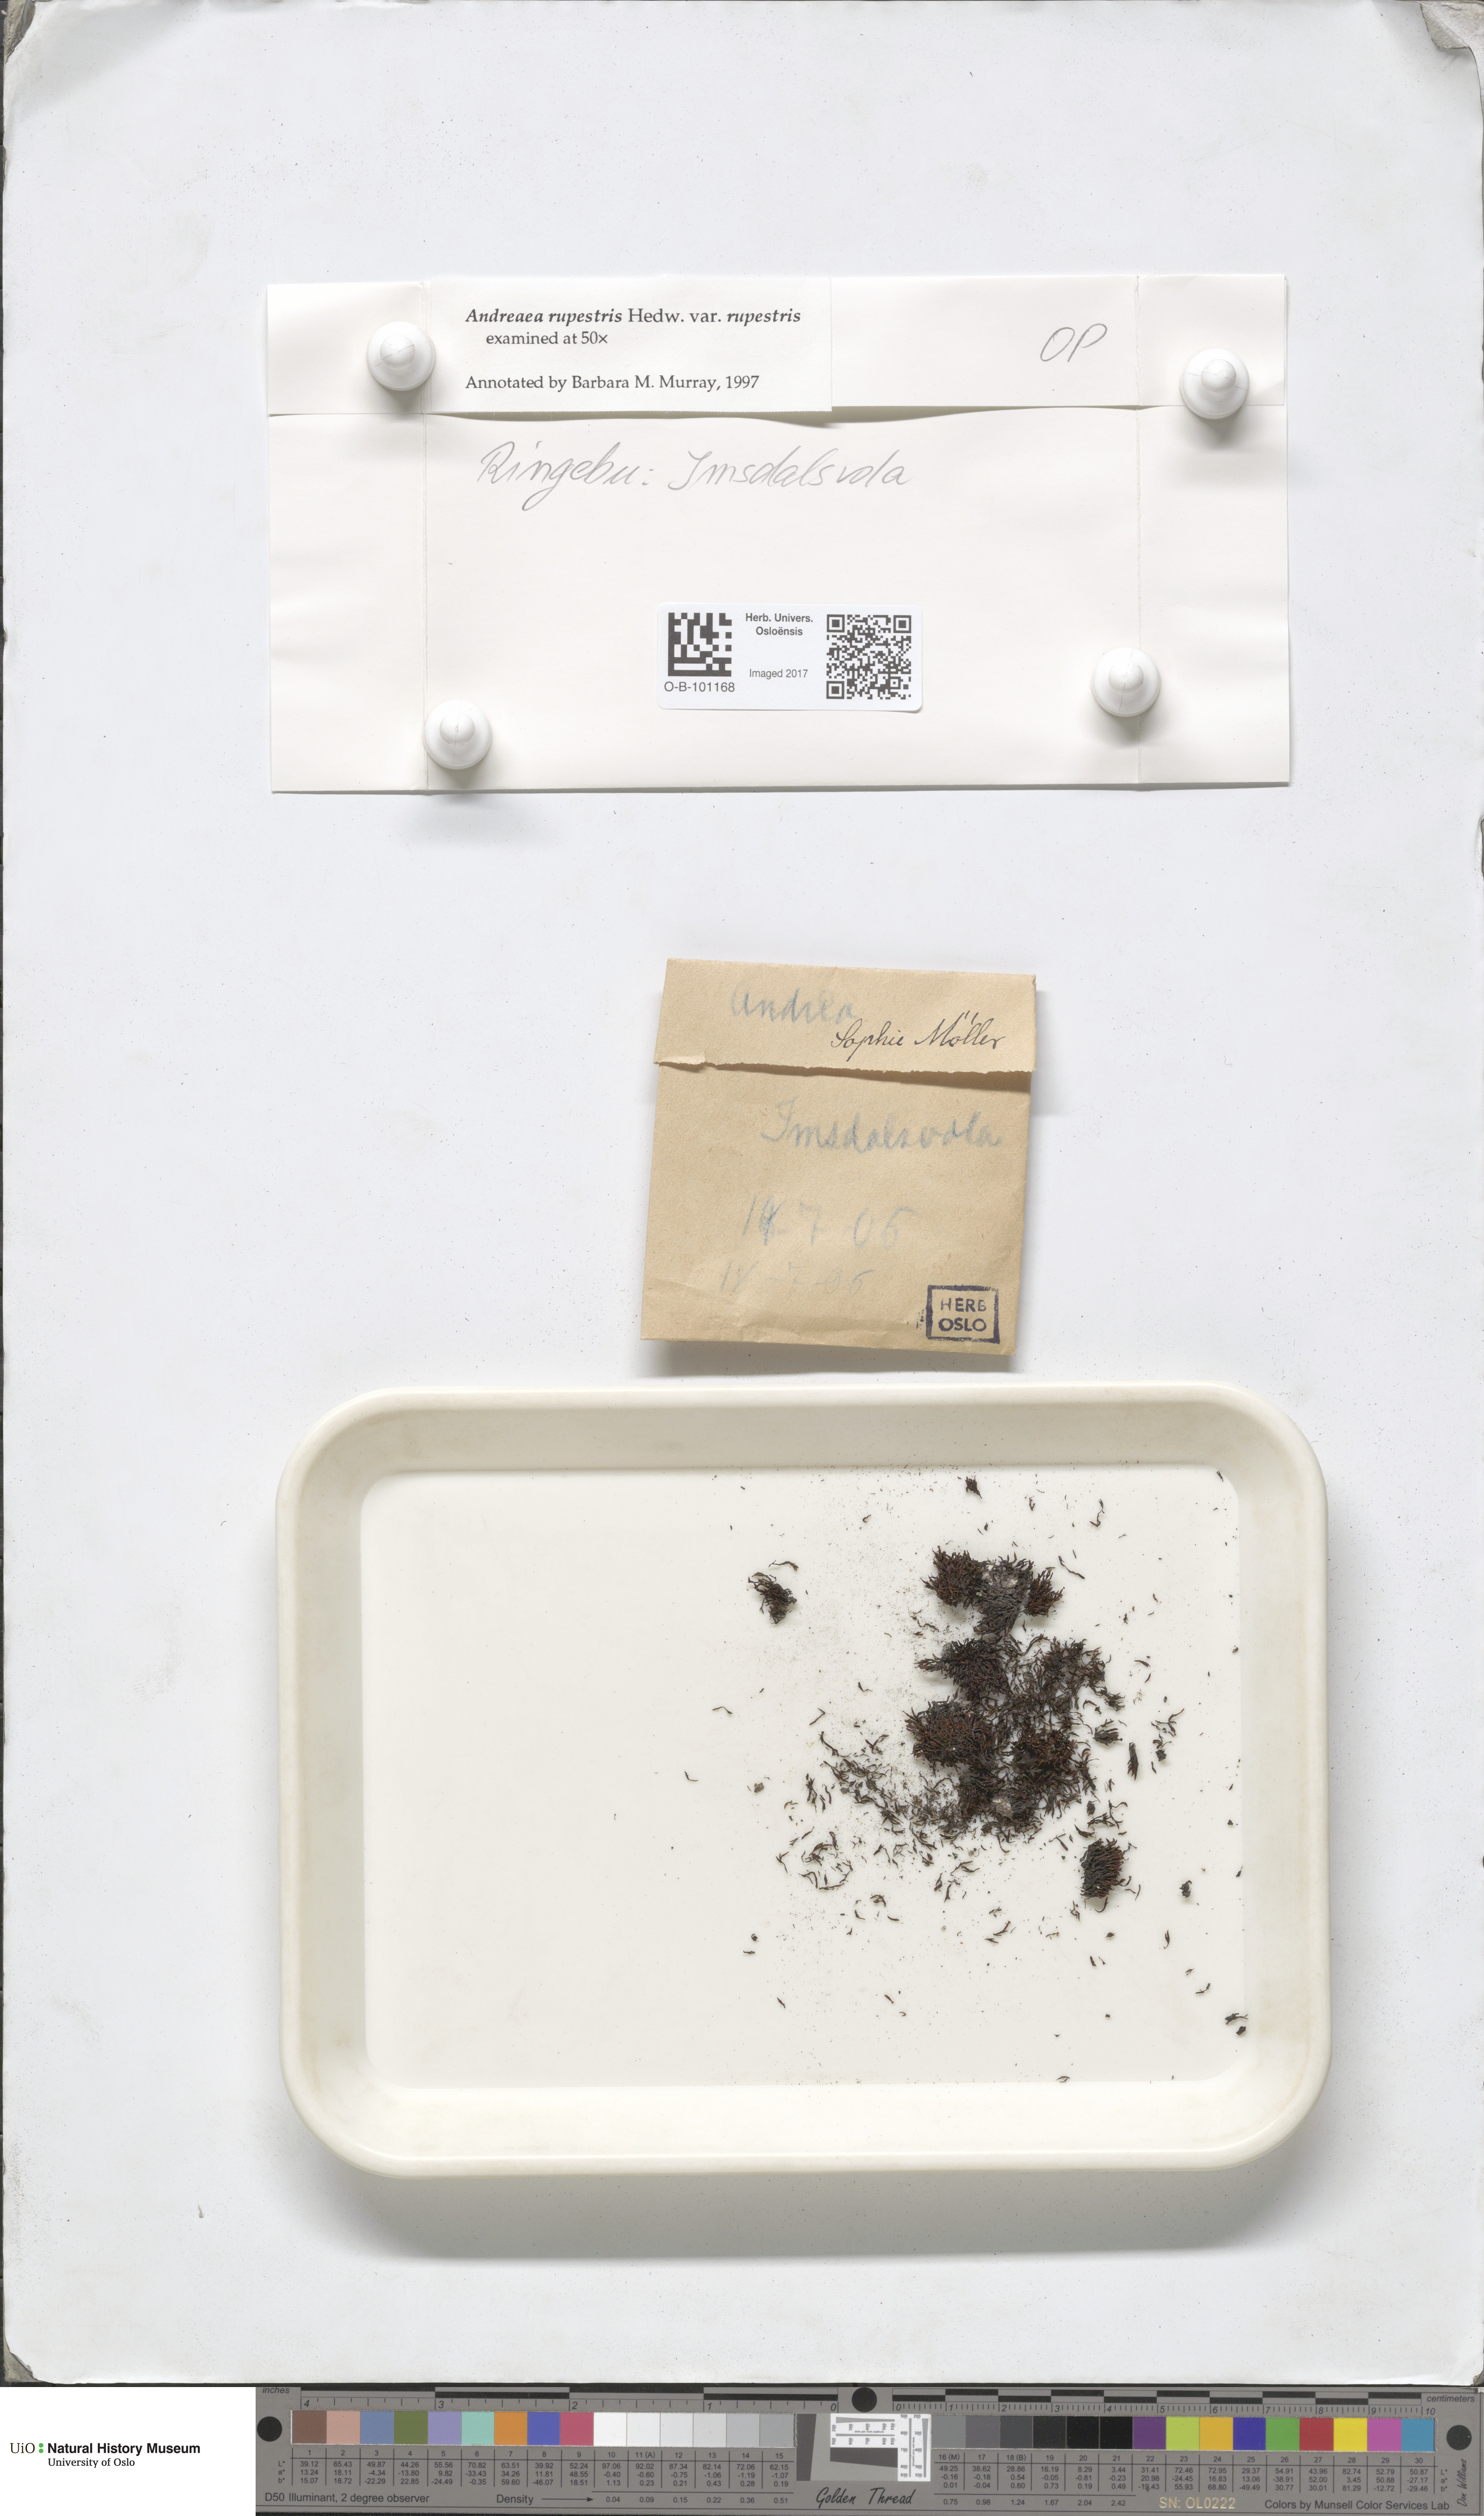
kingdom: Plantae
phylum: Bryophyta
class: Andreaeopsida
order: Andreaeales
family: Andreaeaceae
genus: Andreaea
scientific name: Andreaea rupestris
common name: Black rock moss
